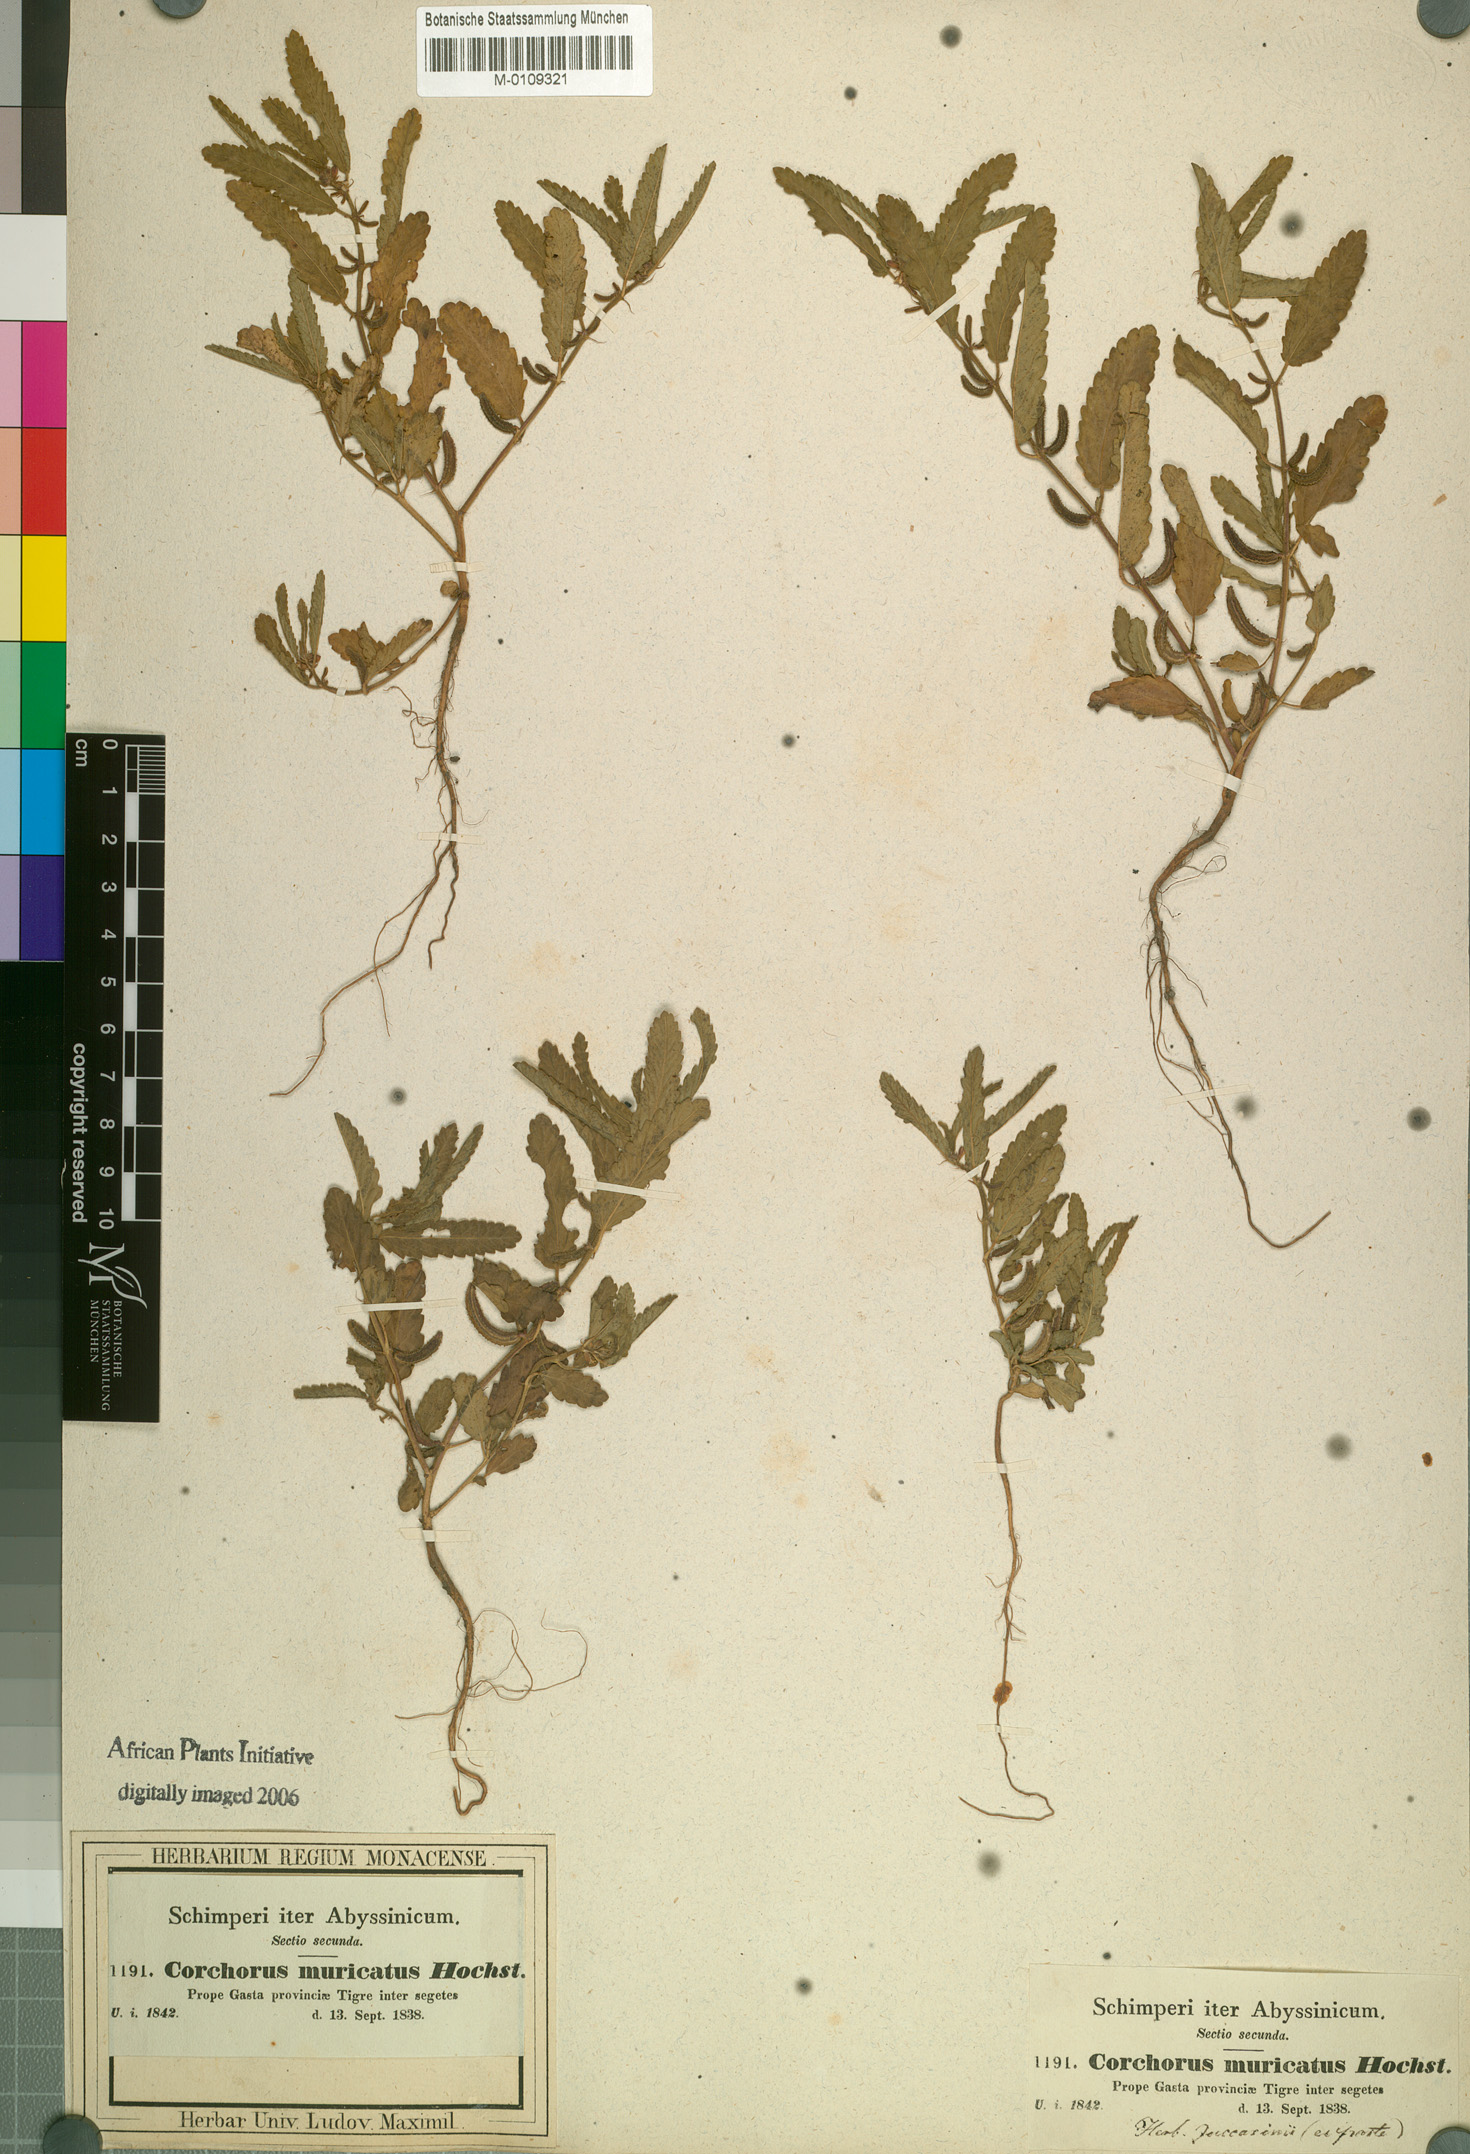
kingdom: Plantae
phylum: Tracheophyta
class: Magnoliopsida
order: Malvales
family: Malvaceae
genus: Corchorus
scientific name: Corchorus schimperi
